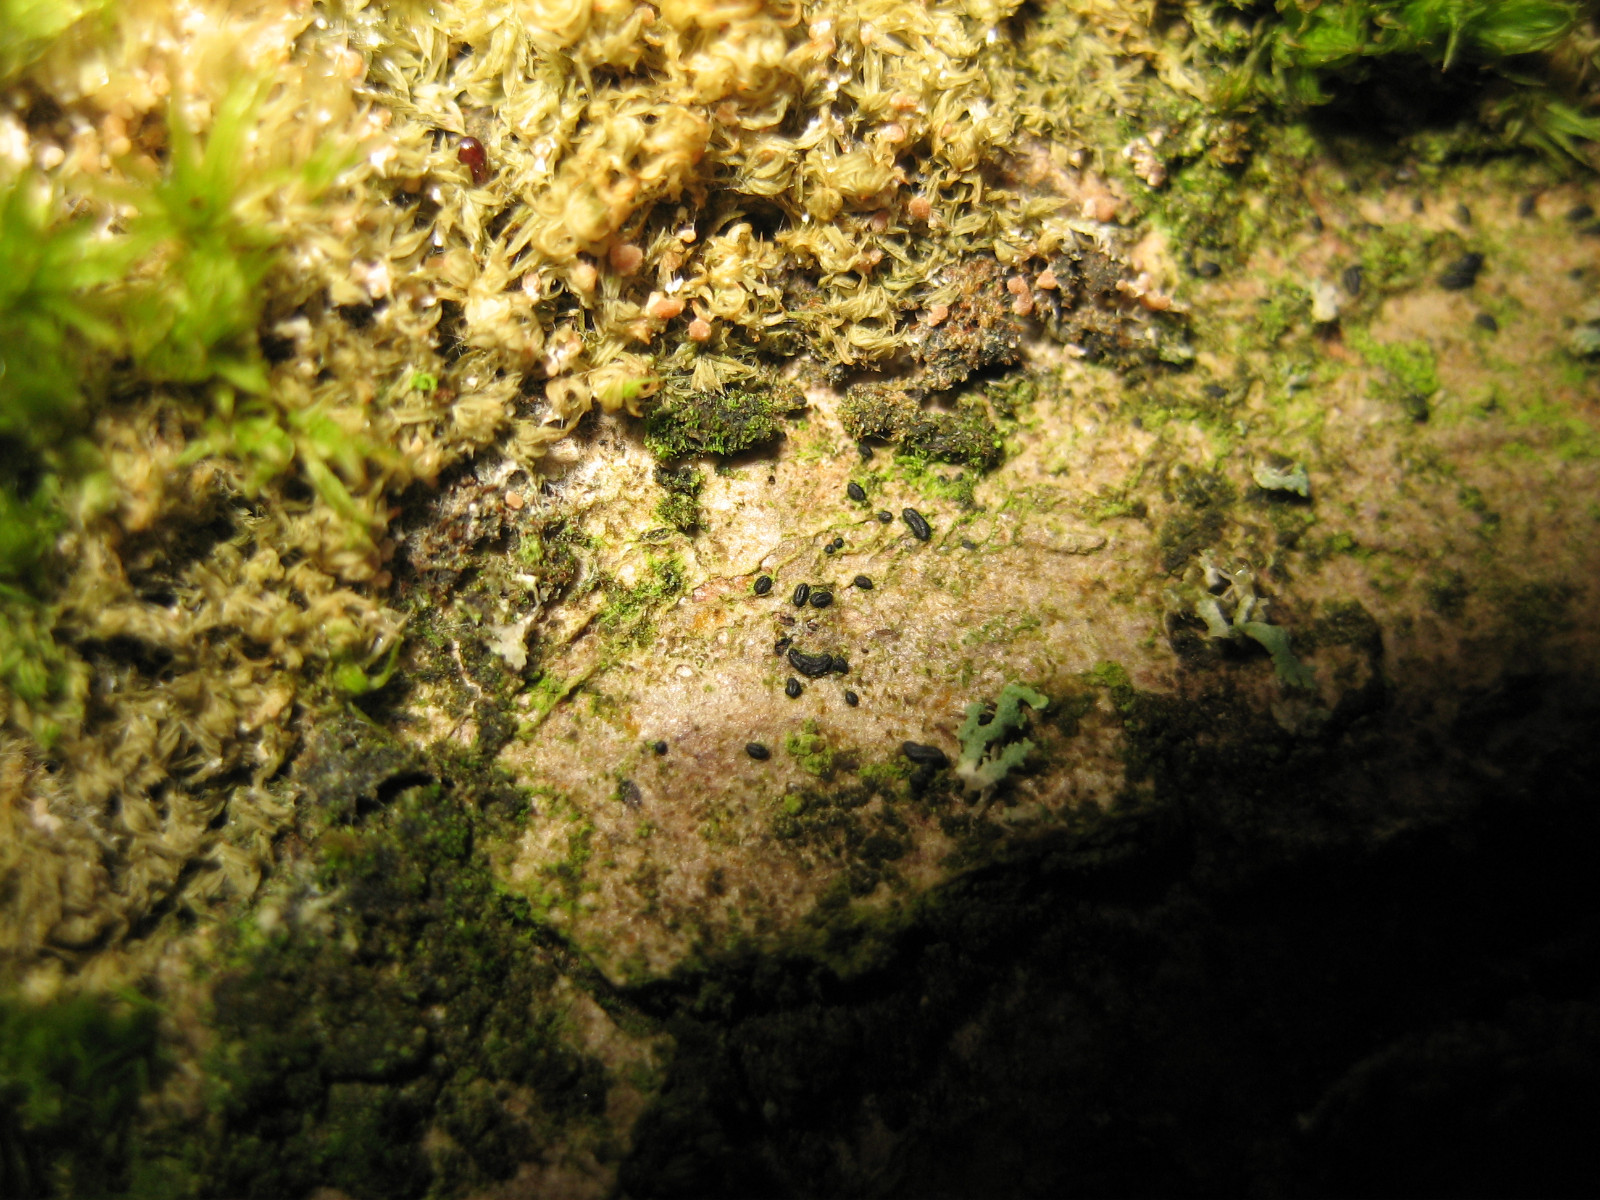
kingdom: Fungi
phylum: Ascomycota
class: Dothideomycetes
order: Hysteriales
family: Hysteriaceae
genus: Hysterium
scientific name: Hysterium acuminatum
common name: almindelig kulmund
